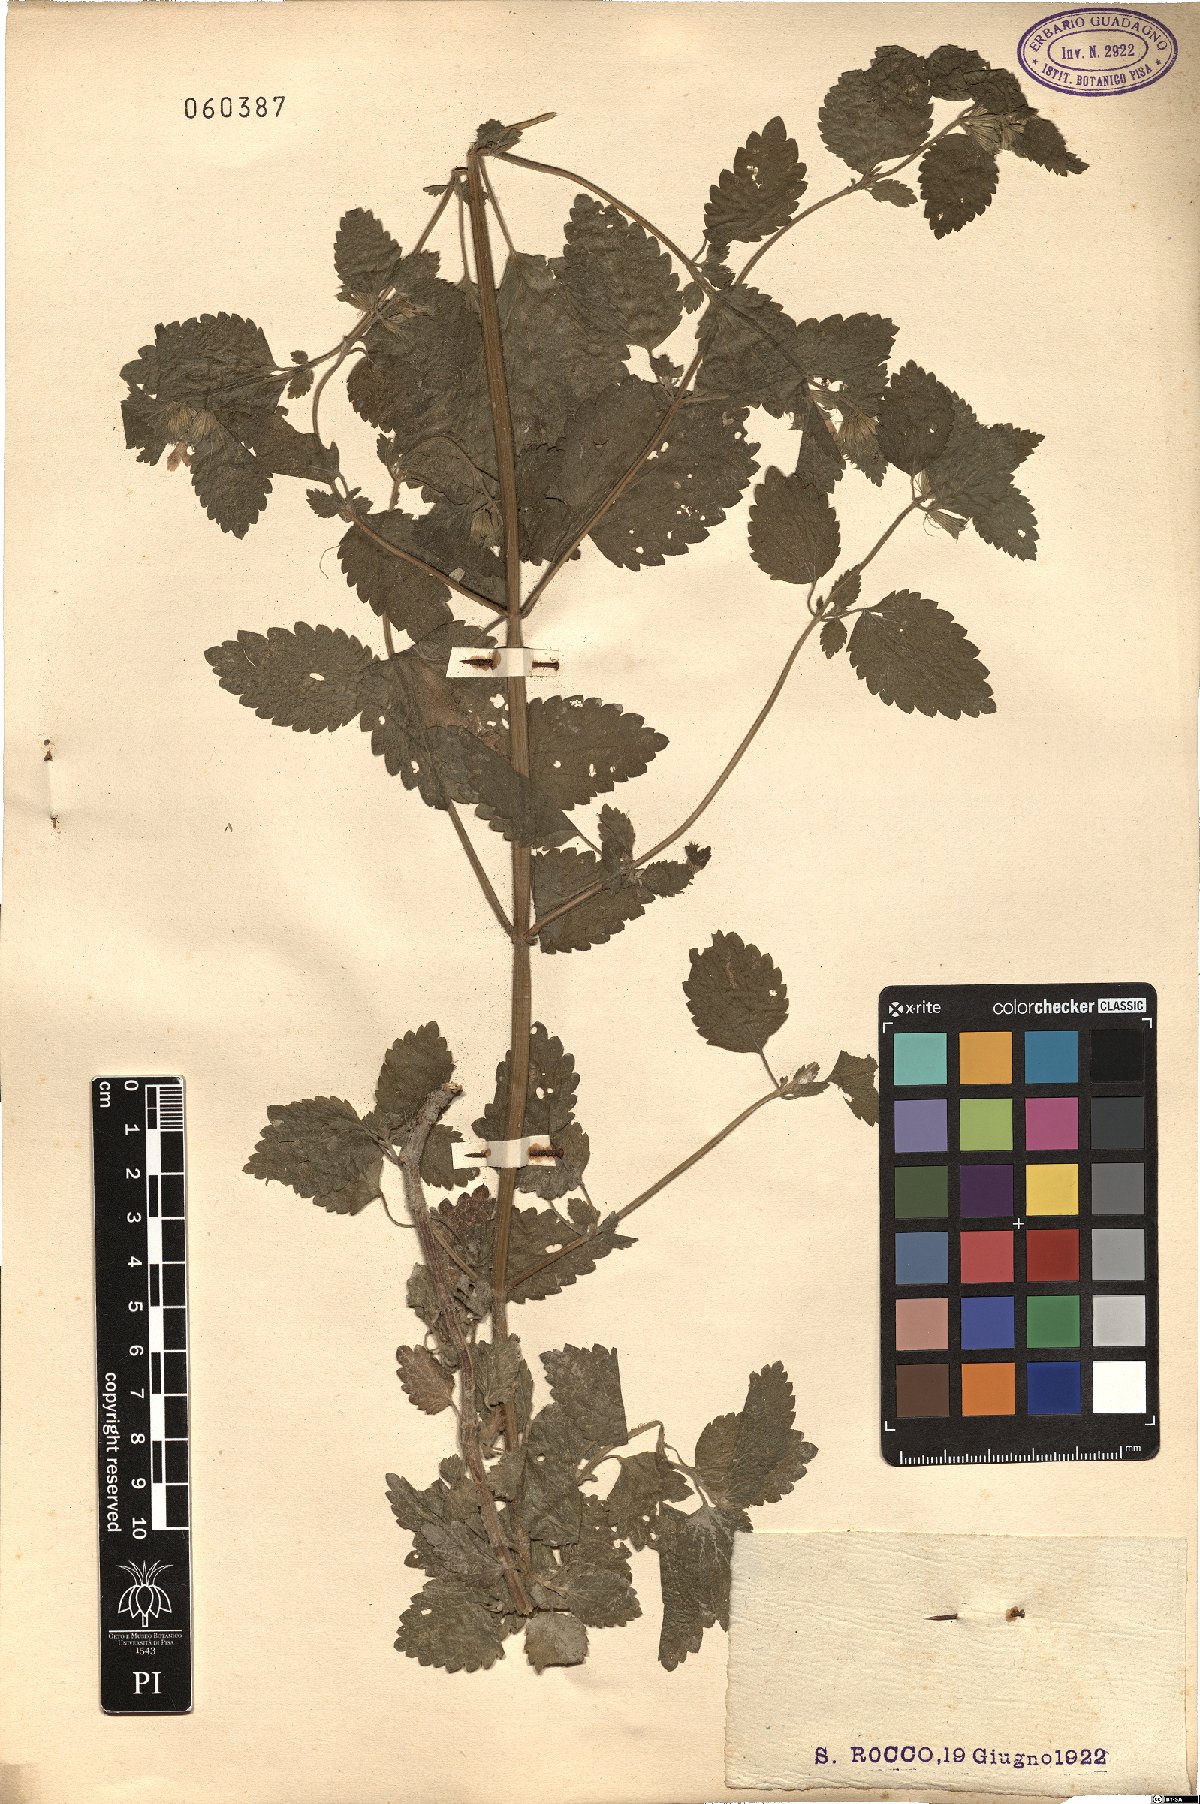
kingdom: Plantae
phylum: Tracheophyta
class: Magnoliopsida
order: Lamiales
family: Lamiaceae
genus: Melissa
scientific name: Melissa officinalis
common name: Balm
